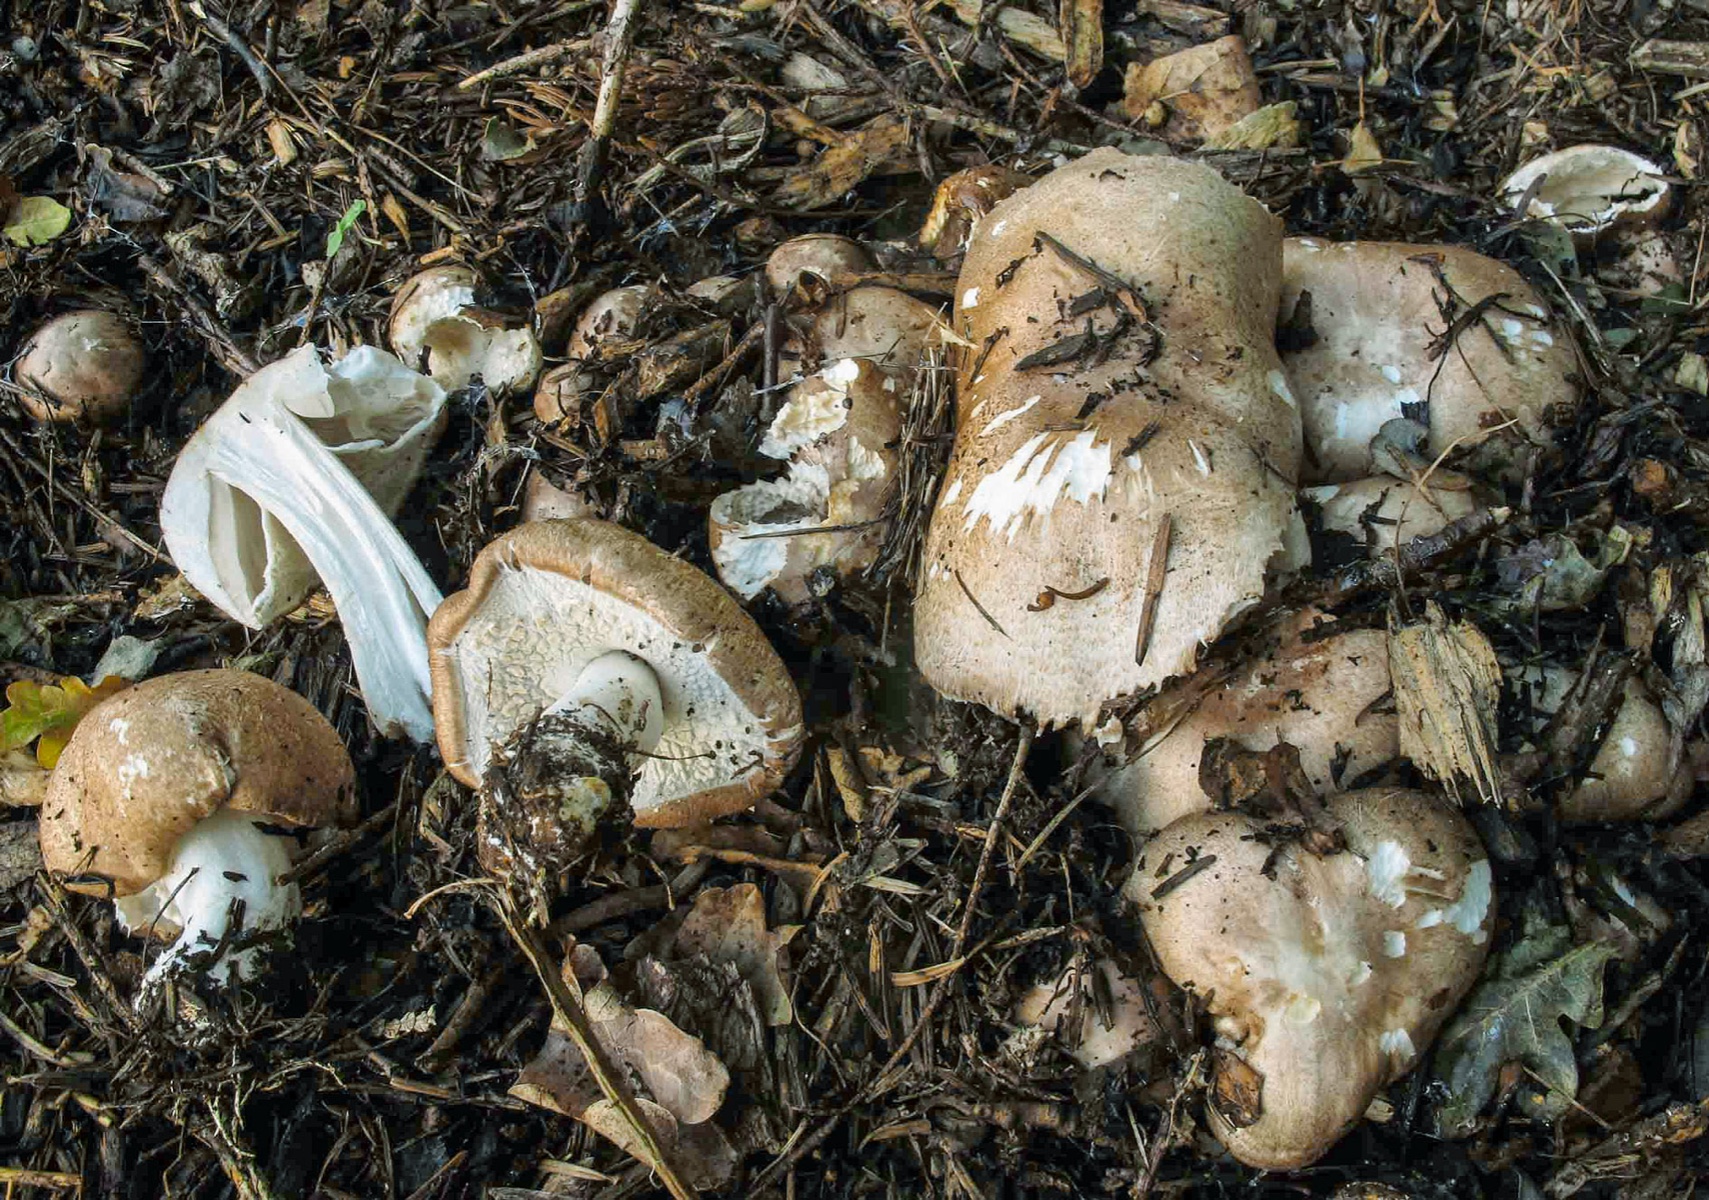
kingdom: Fungi
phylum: Basidiomycota
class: Agaricomycetes
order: Agaricales
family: Agaricaceae
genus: Agaricus
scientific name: Agaricus subrufescens
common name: kompost-champignon
